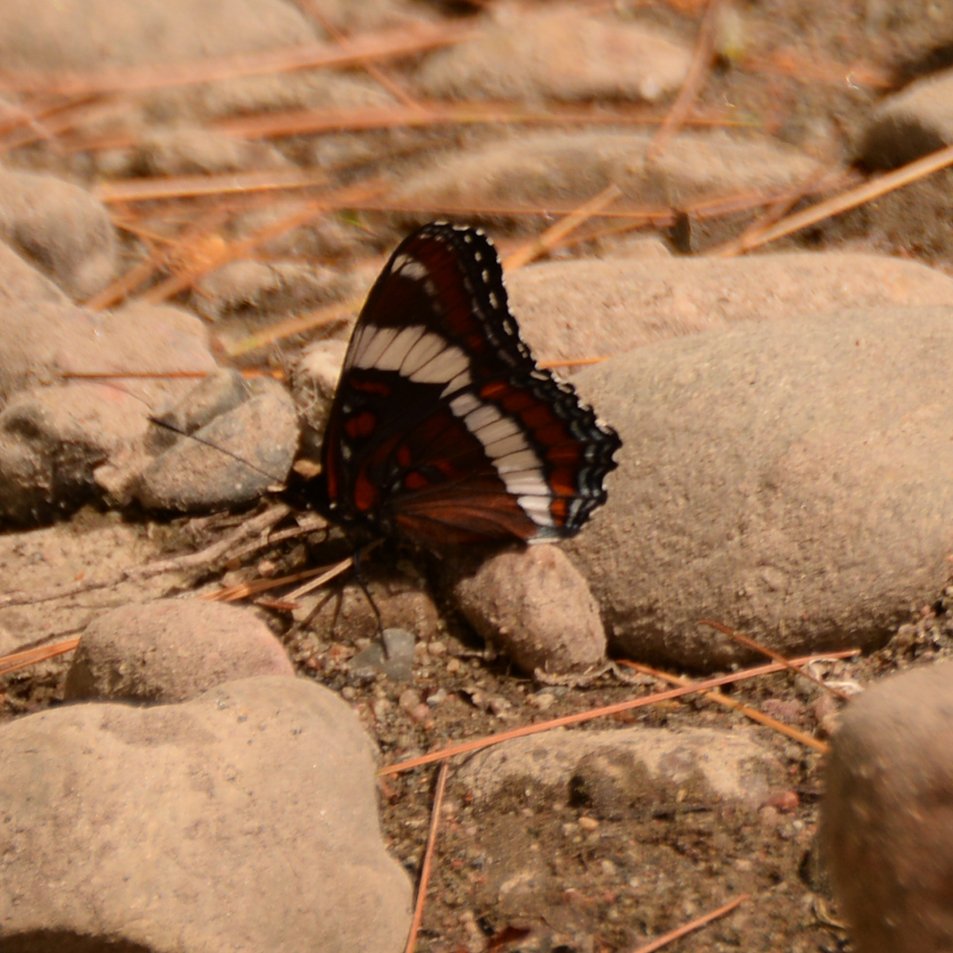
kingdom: Animalia
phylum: Arthropoda
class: Insecta
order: Lepidoptera
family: Nymphalidae
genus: Limenitis
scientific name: Limenitis arthemis
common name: Red-spotted Admiral
